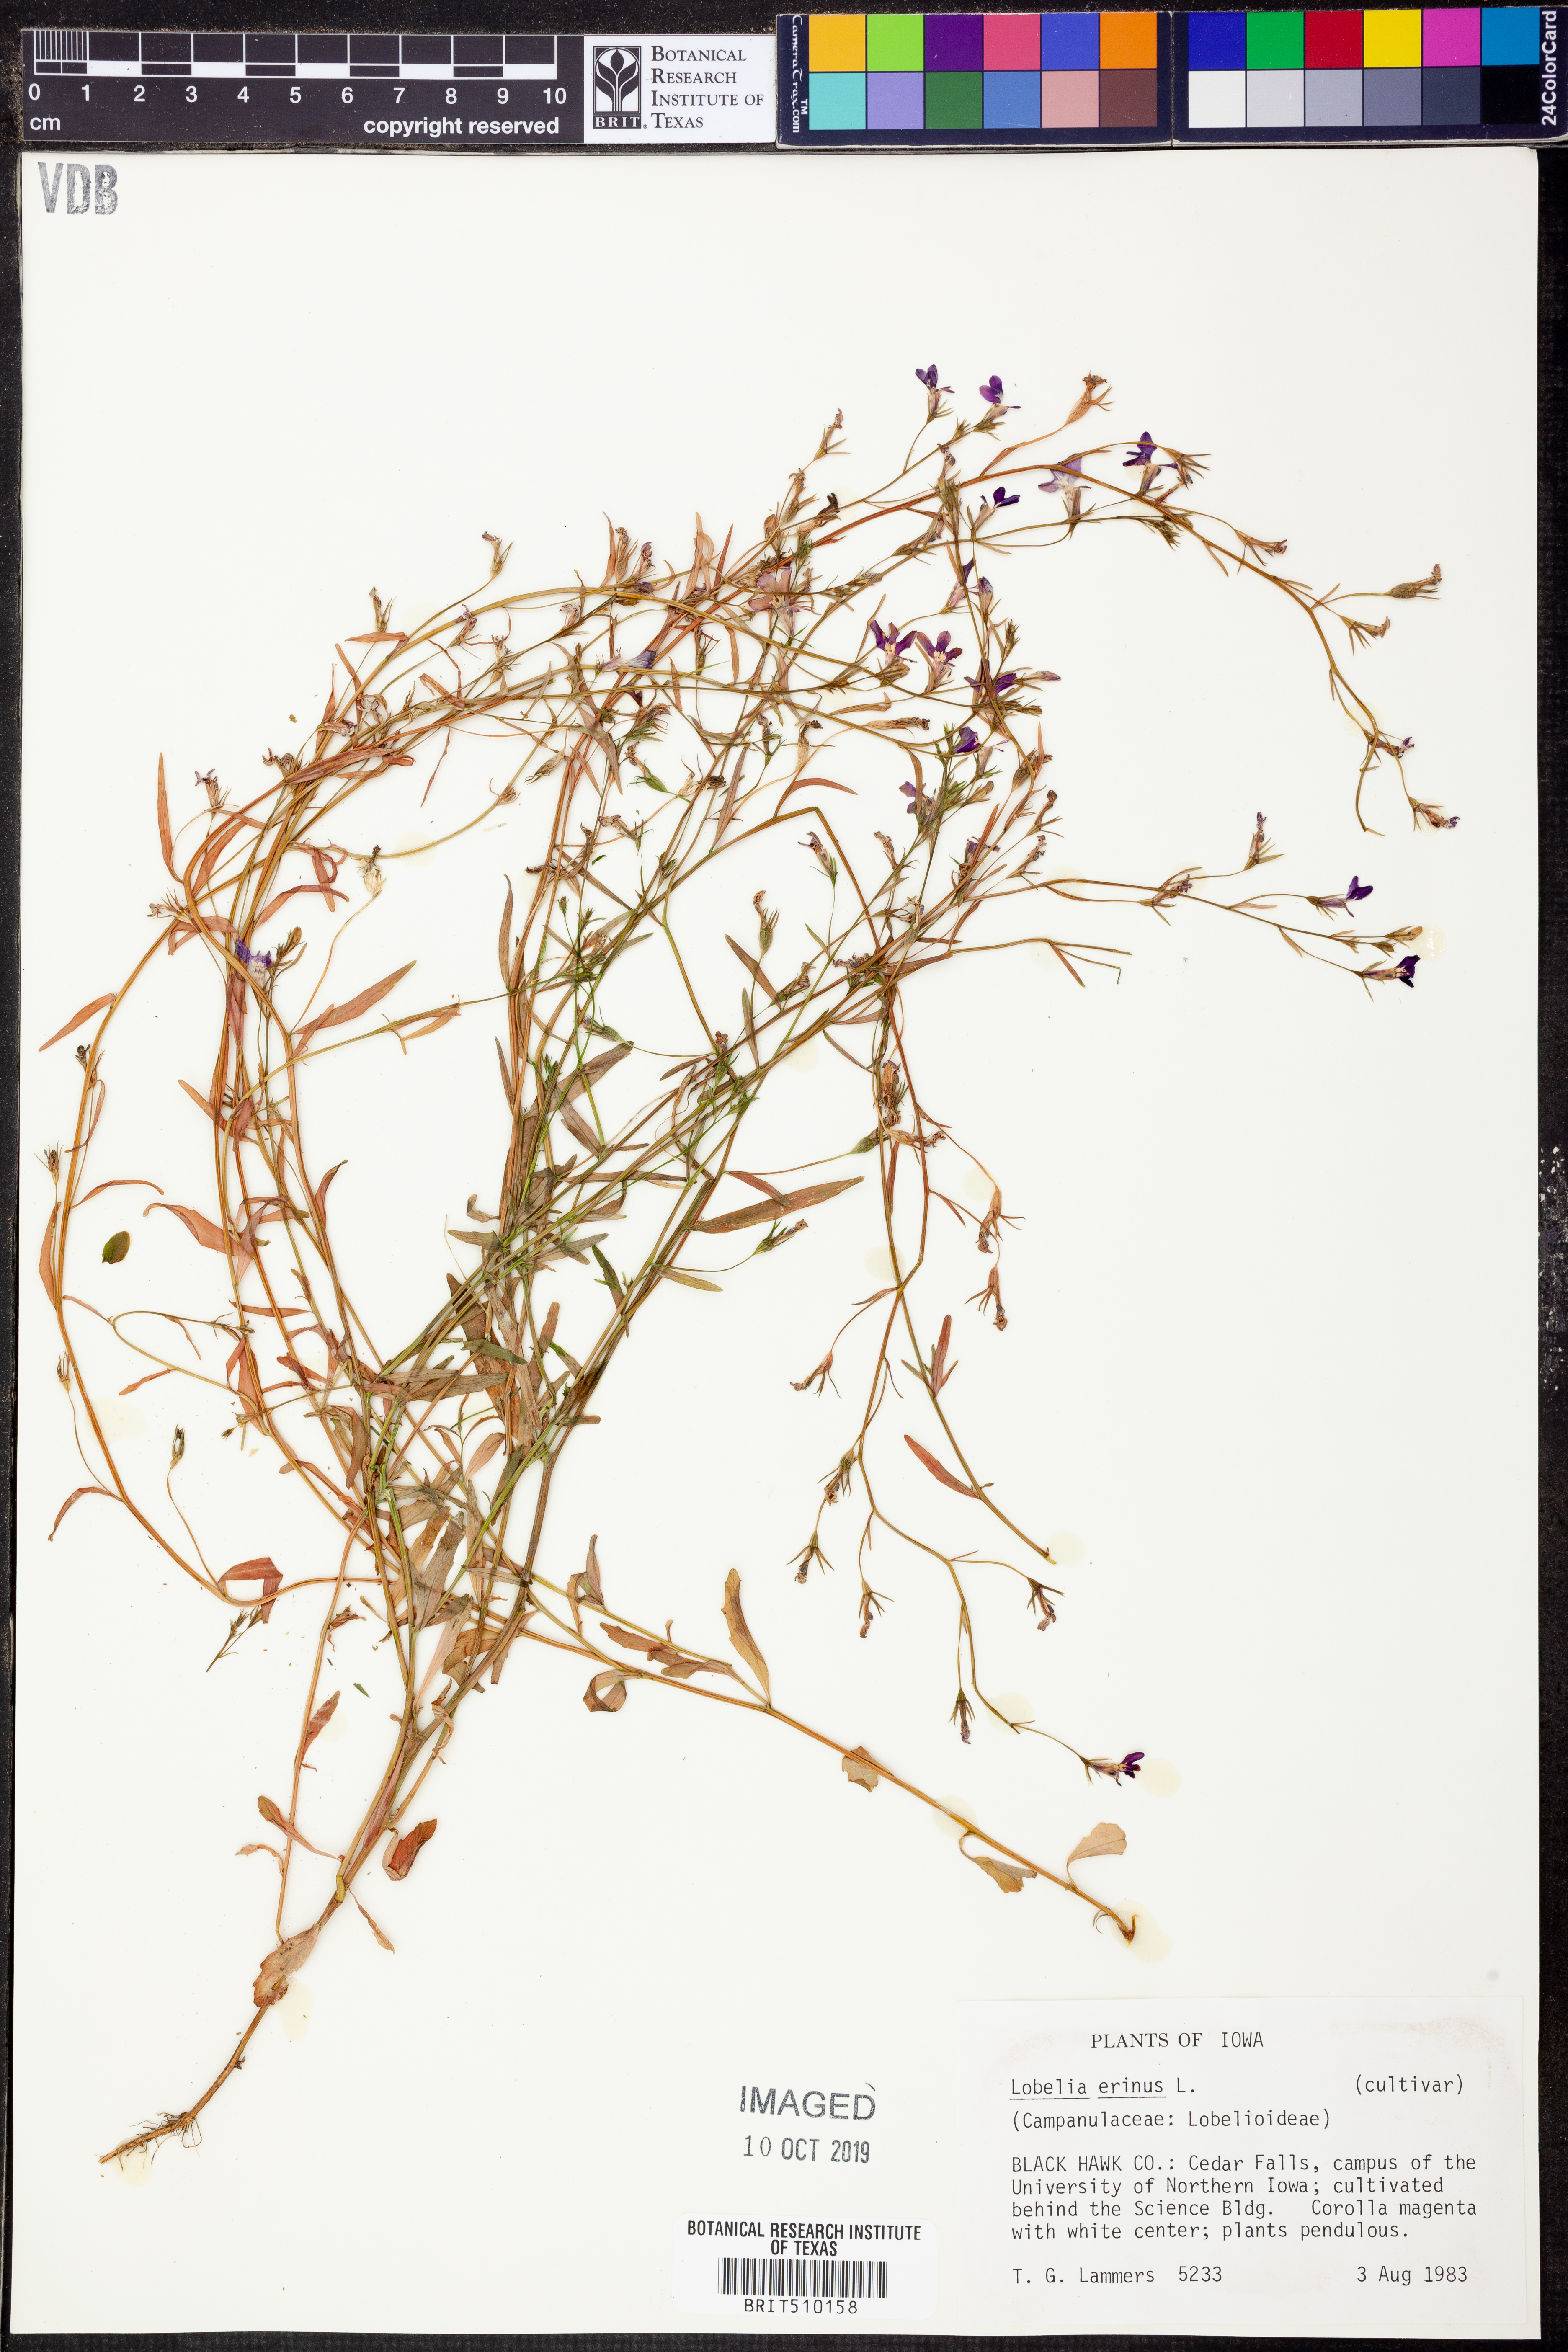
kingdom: Plantae
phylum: Tracheophyta
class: Magnoliopsida
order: Asterales
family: Campanulaceae
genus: Lobelia
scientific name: Lobelia erinus
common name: Edging lobelia
